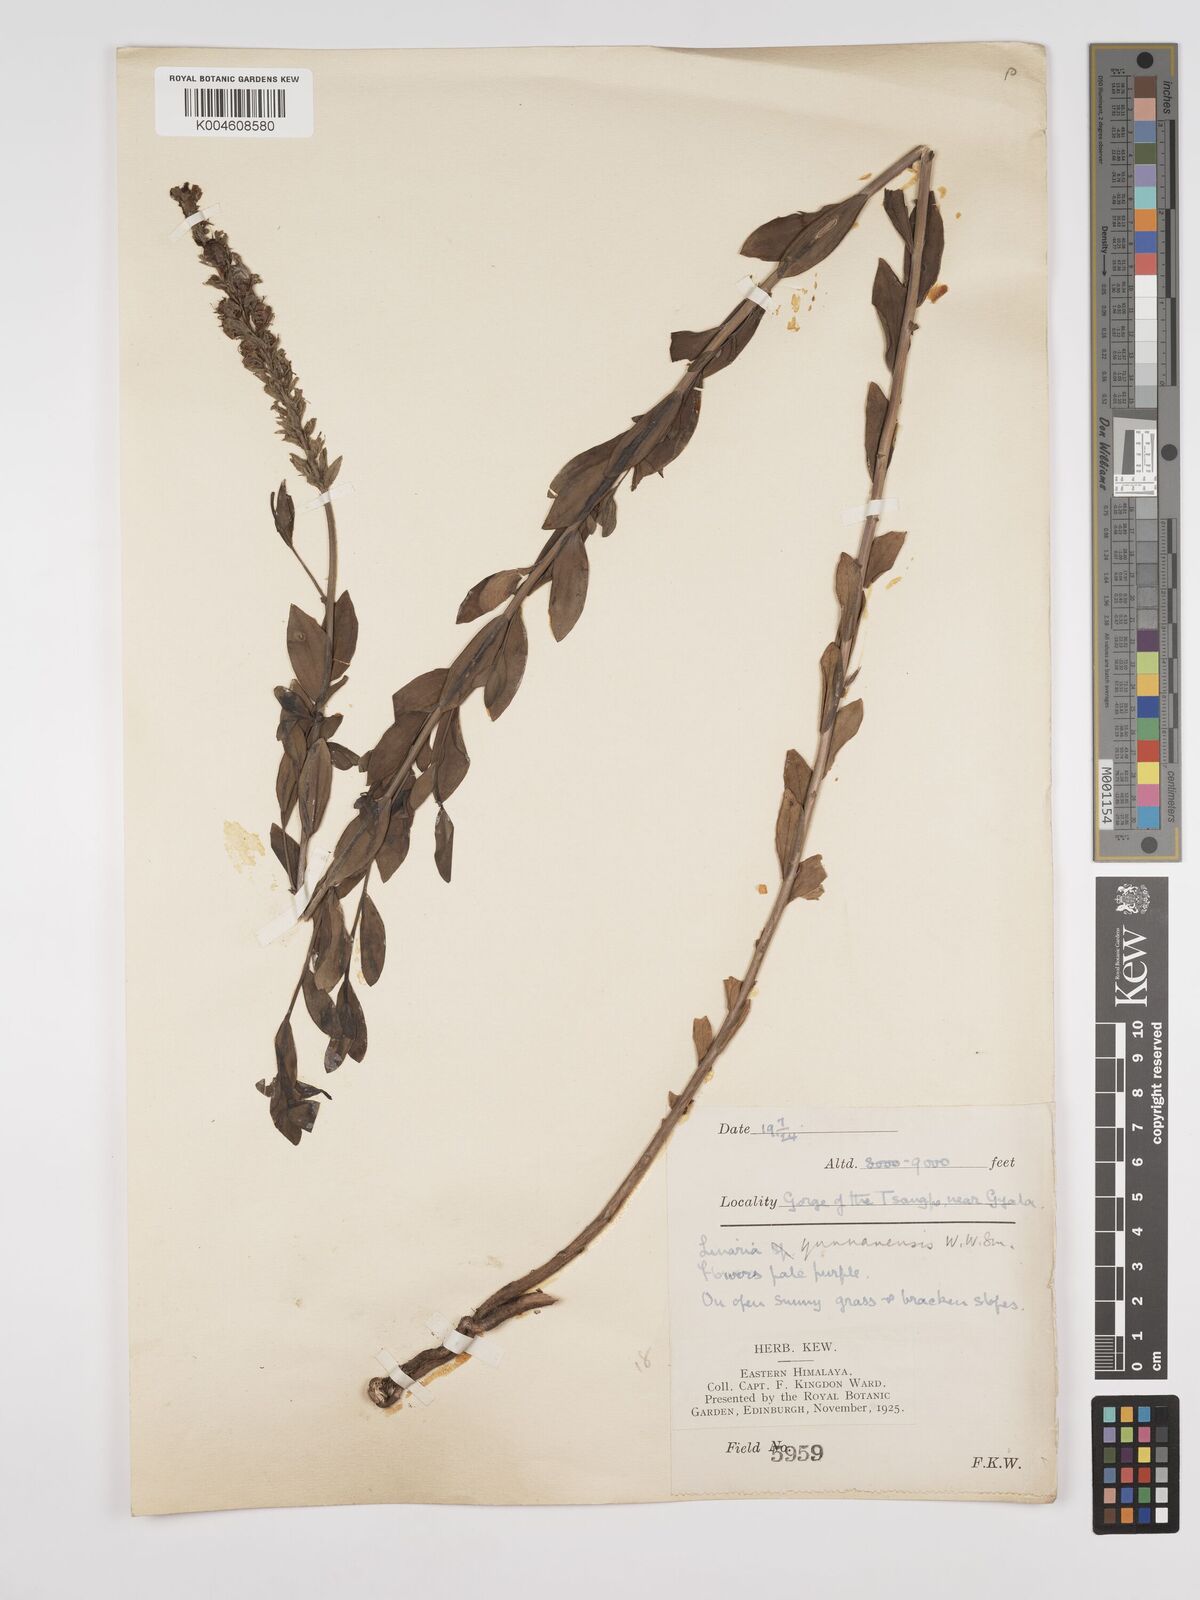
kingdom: Plantae
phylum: Tracheophyta
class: Magnoliopsida
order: Lamiales
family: Plantaginaceae
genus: Kickxia
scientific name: Kickxia
